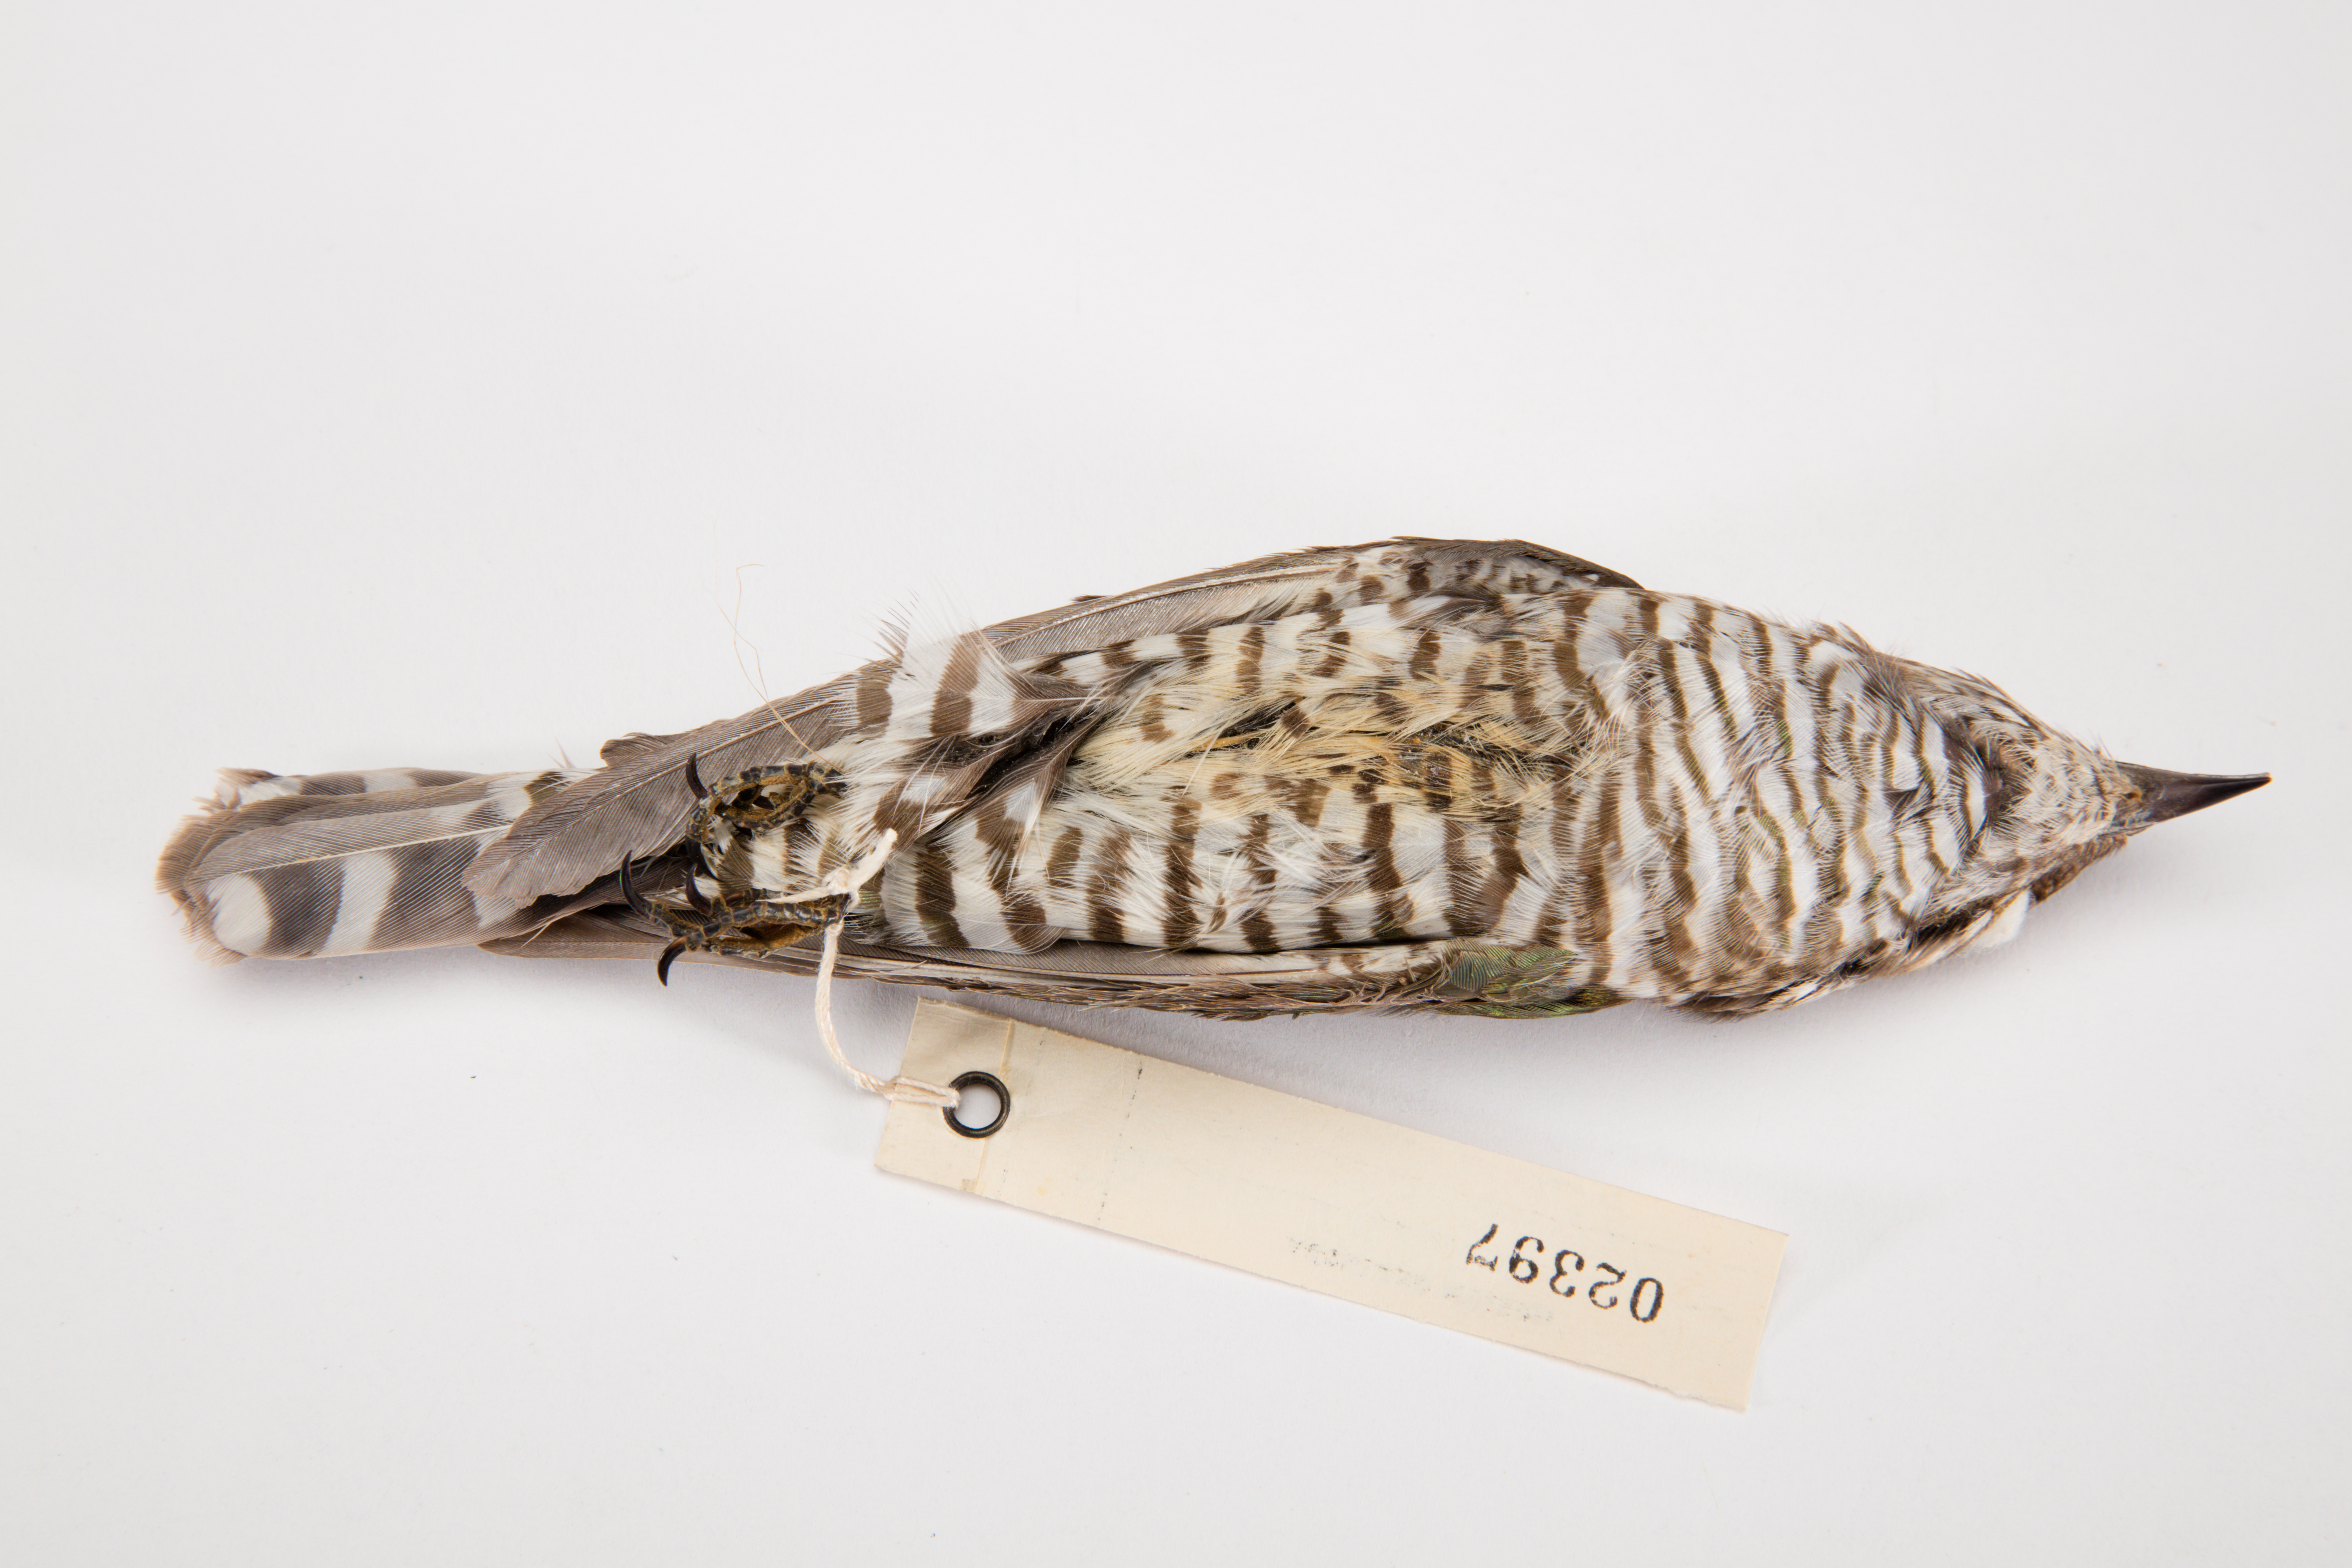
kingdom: Animalia
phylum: Chordata
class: Aves
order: Cuculiformes
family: Cuculidae
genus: Chrysococcyx
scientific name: Chrysococcyx lucidus
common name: Shining bronze cuckoo
